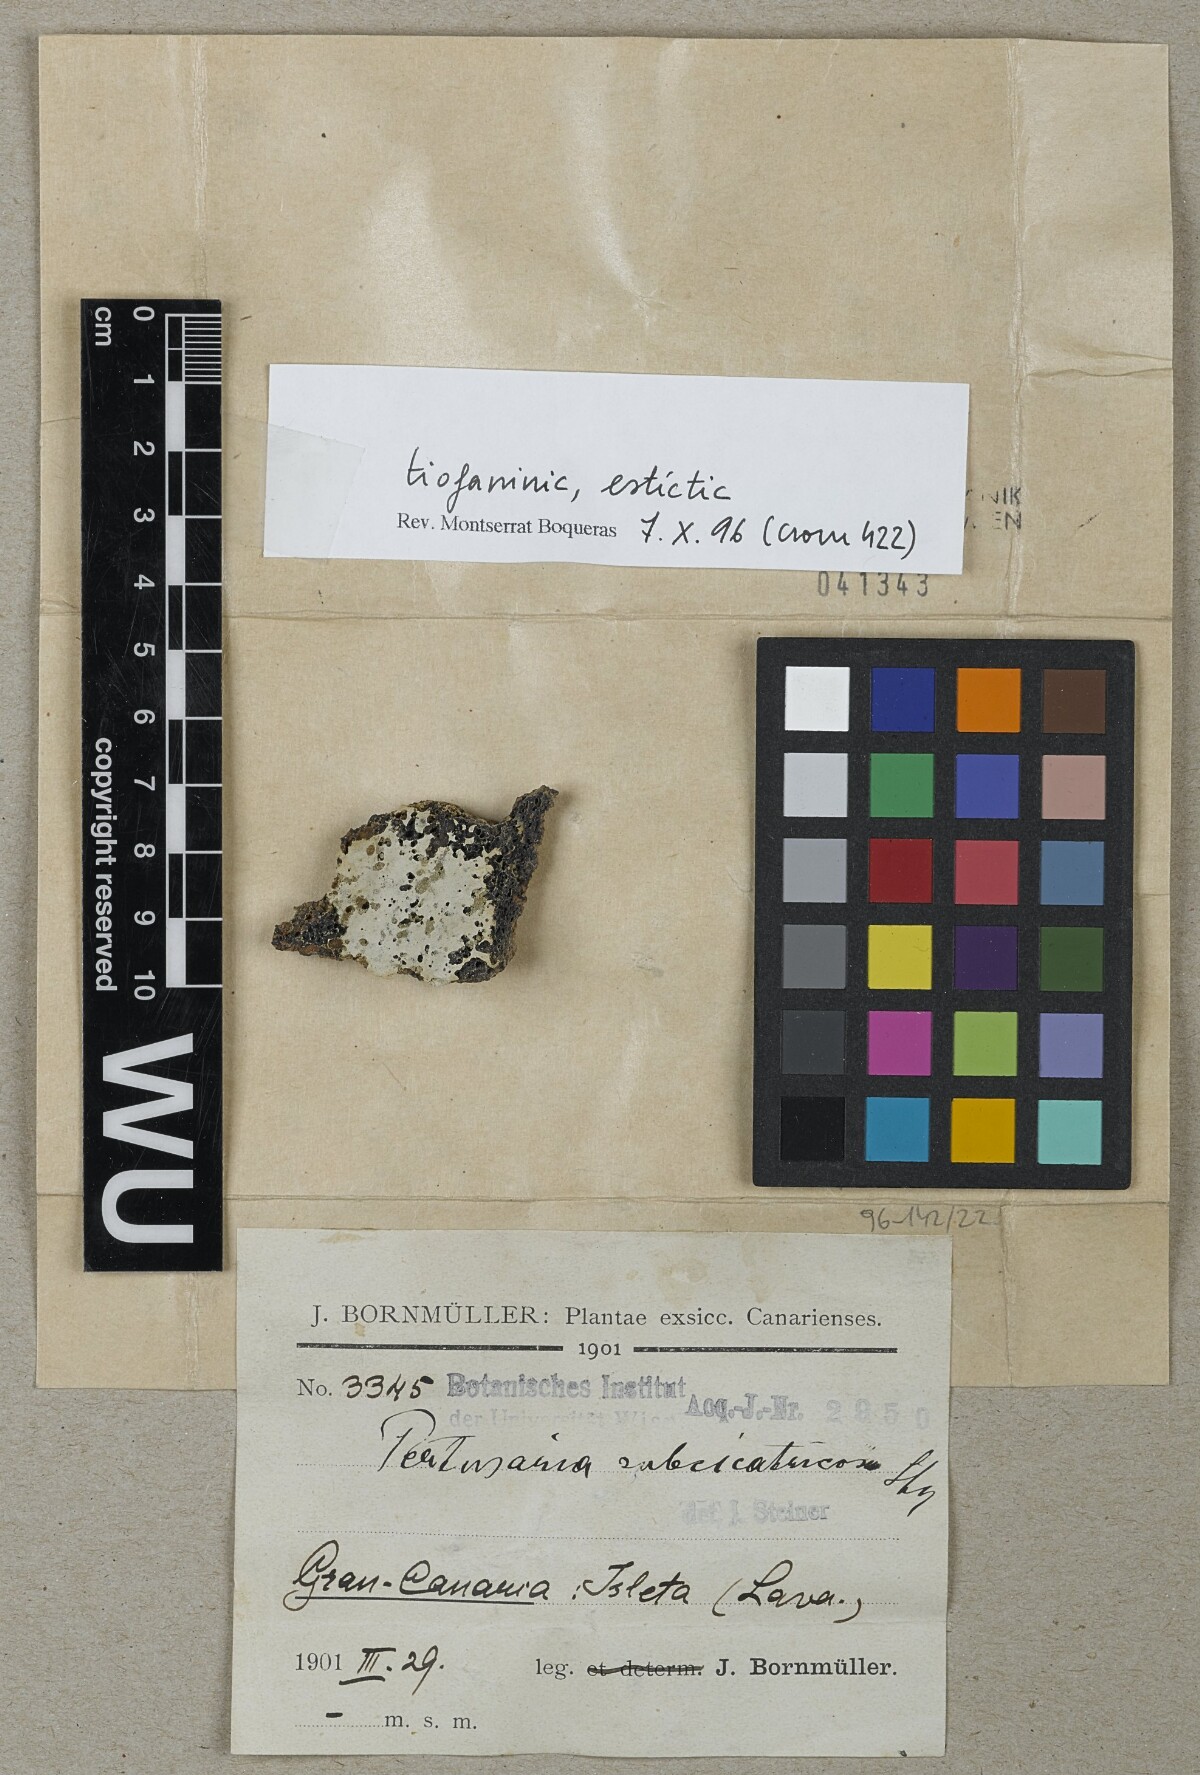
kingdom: Fungi
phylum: Ascomycota
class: Lecanoromycetes
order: Pertusariales
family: Pertusariaceae
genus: Pertusaria
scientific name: Pertusaria
